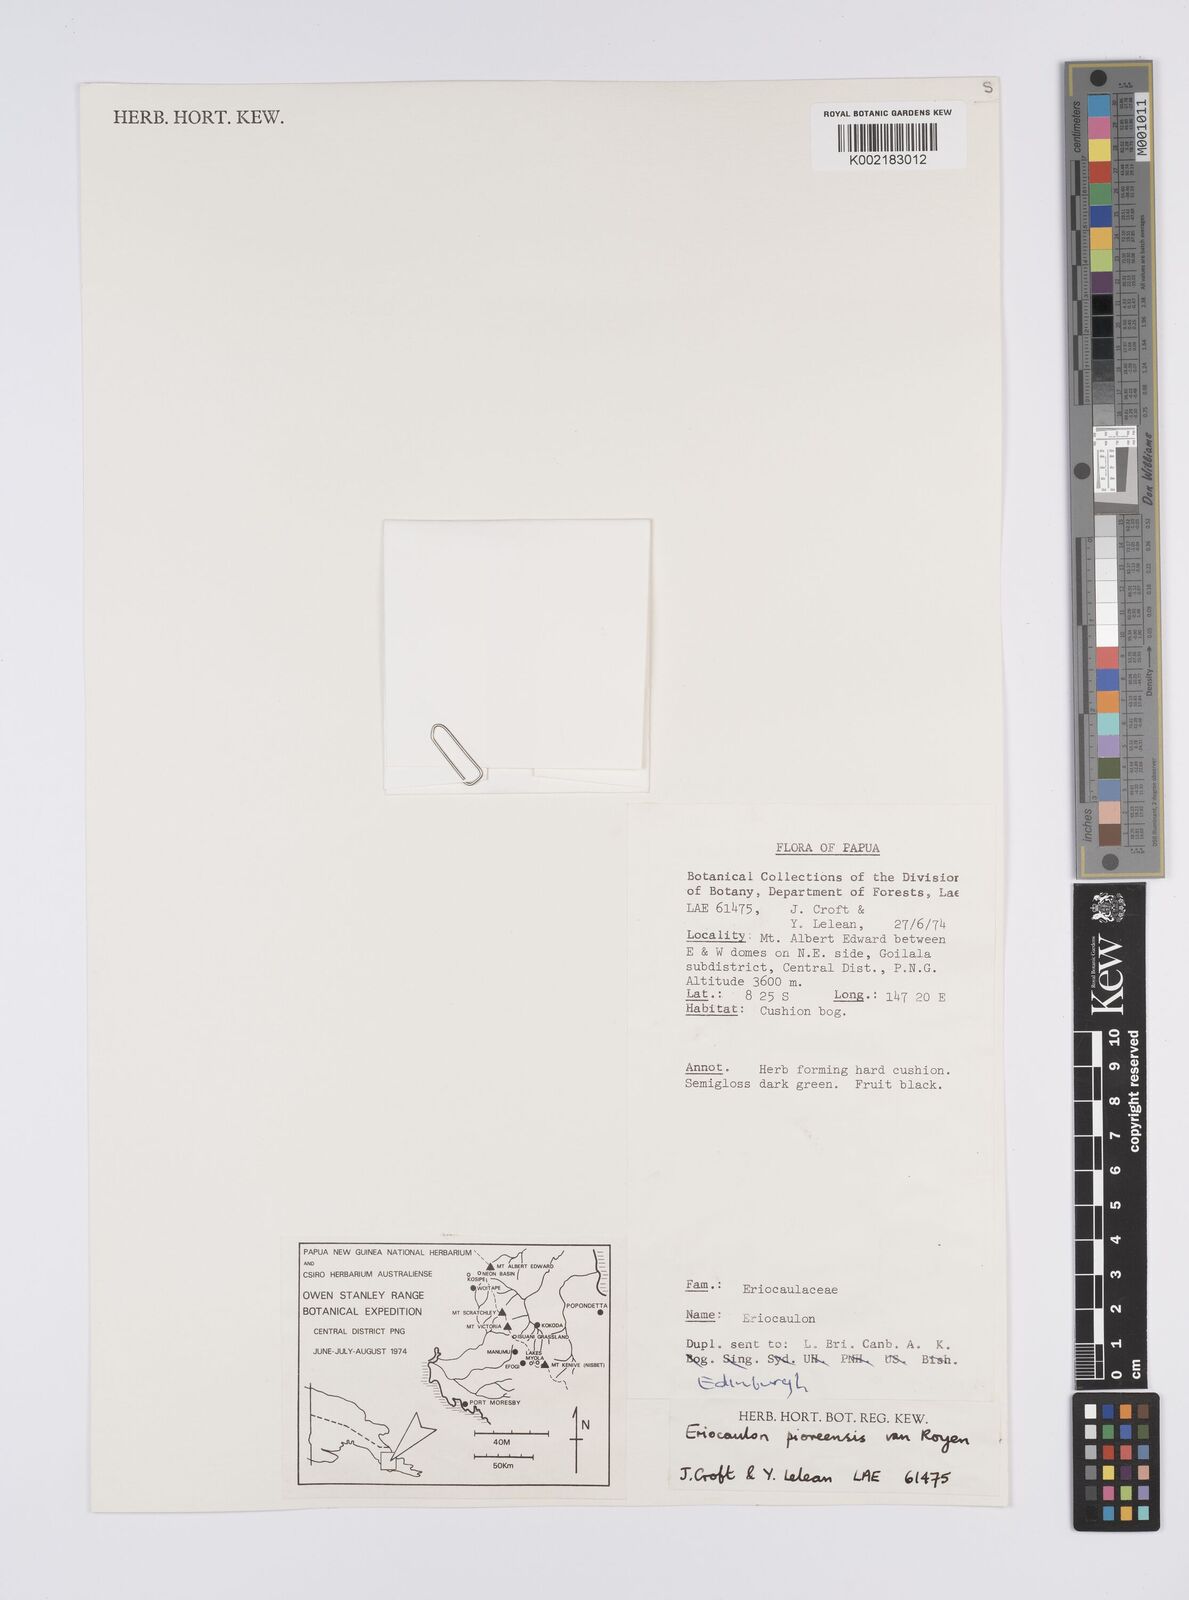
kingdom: Plantae
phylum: Tracheophyta
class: Liliopsida
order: Poales
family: Eriocaulaceae
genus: Eriocaulon
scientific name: Eriocaulon
